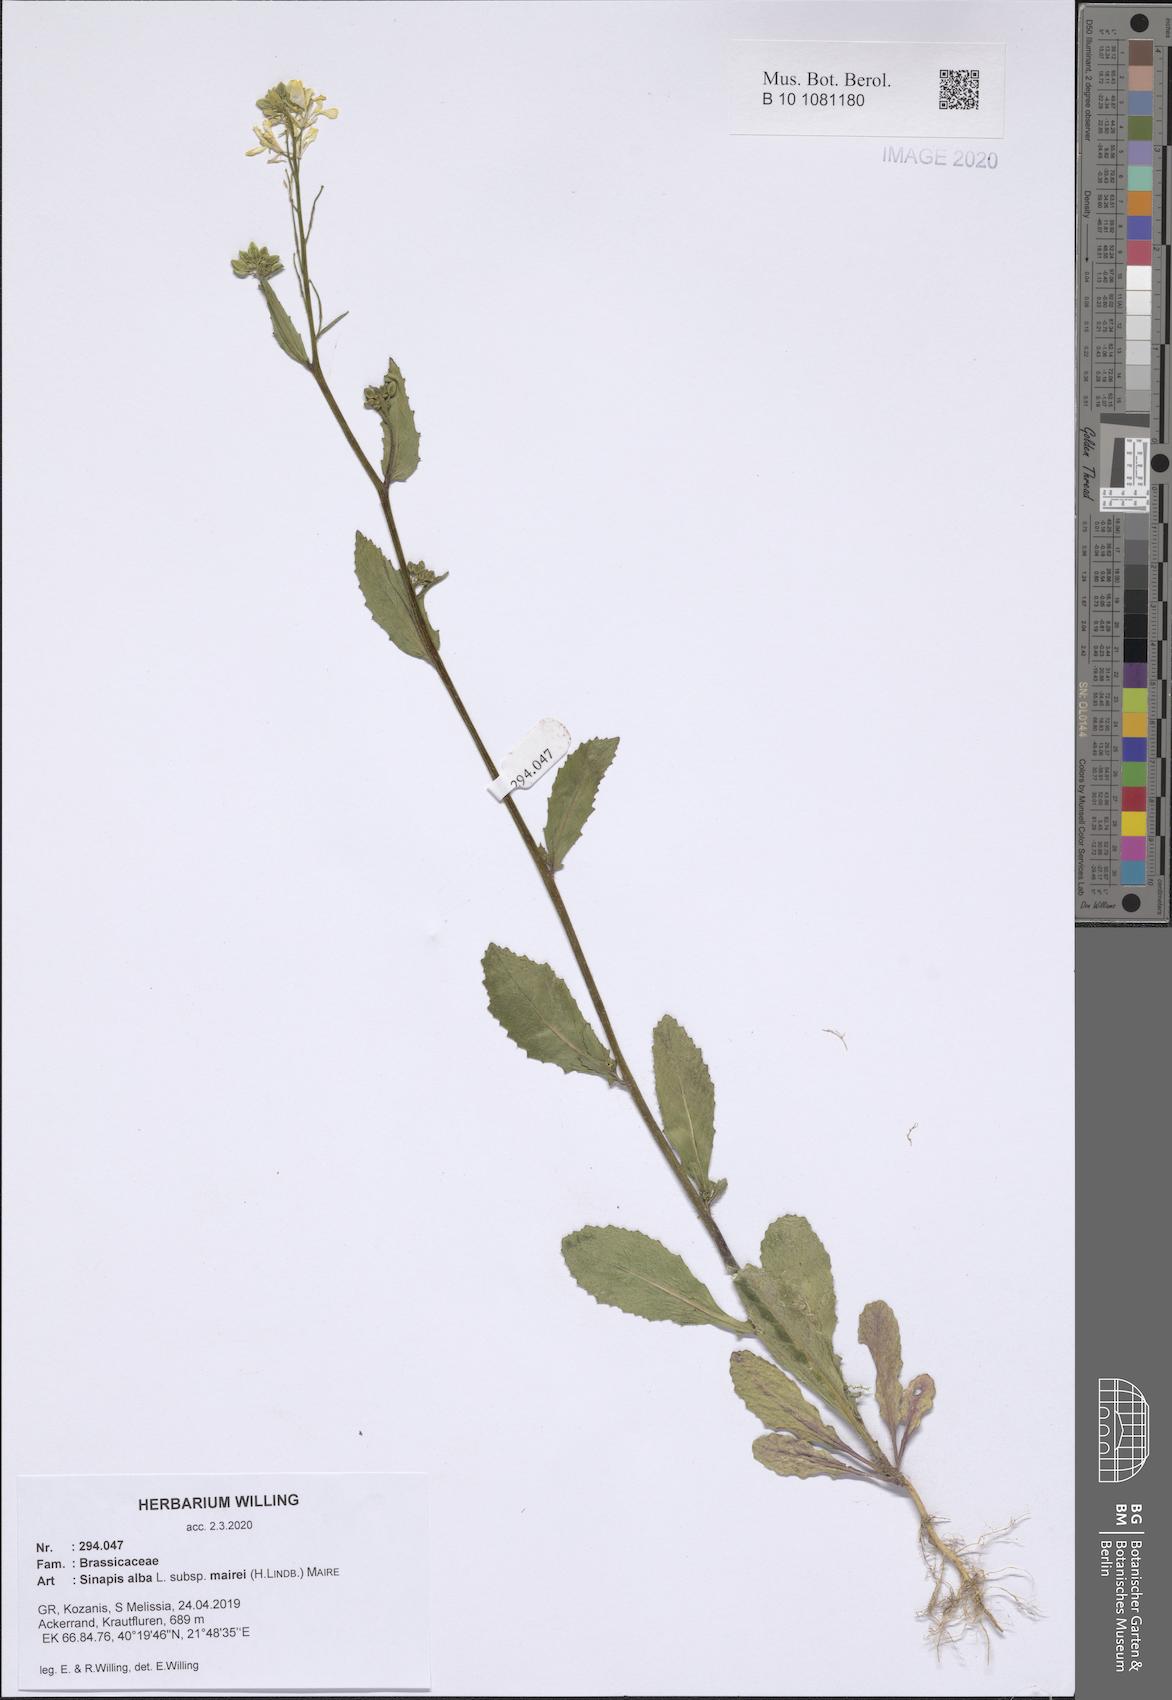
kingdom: Plantae
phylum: Tracheophyta
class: Magnoliopsida
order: Brassicales
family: Brassicaceae
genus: Sinapis
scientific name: Sinapis alba
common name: White mustard
